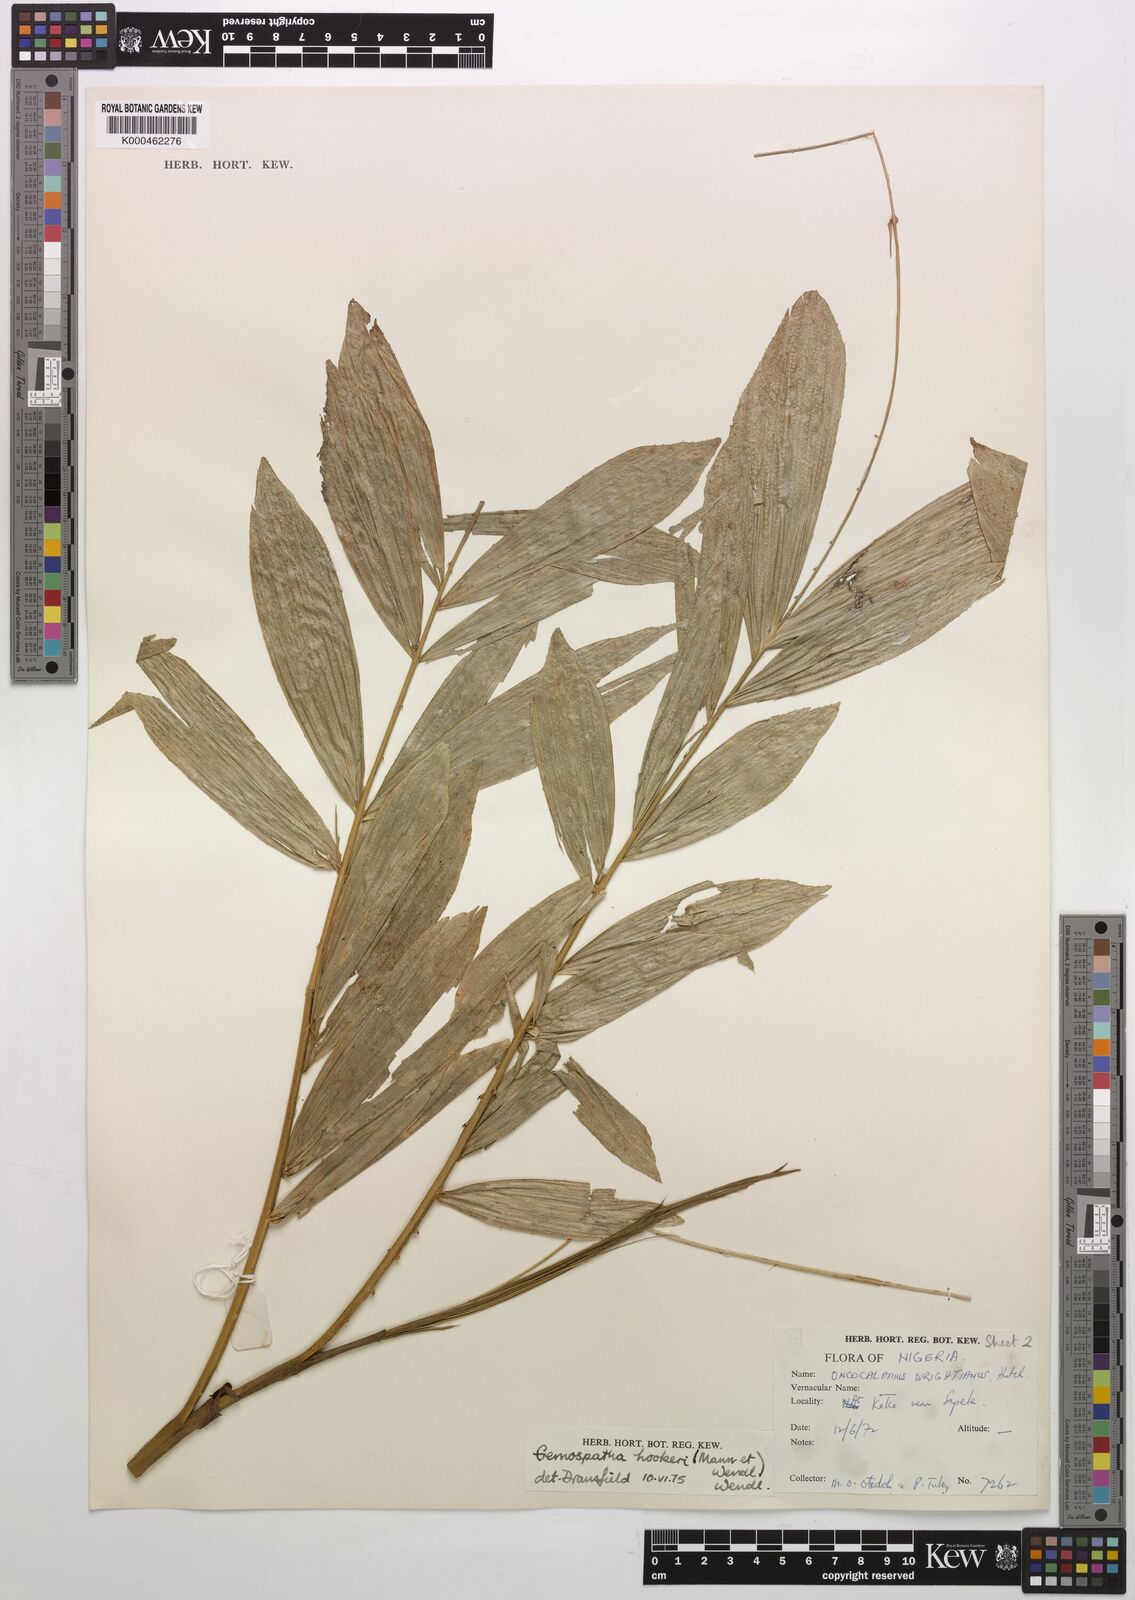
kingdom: Plantae
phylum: Tracheophyta
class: Liliopsida
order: Arecales
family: Arecaceae
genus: Eremospatha
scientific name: Eremospatha hookeri
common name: Rattan
